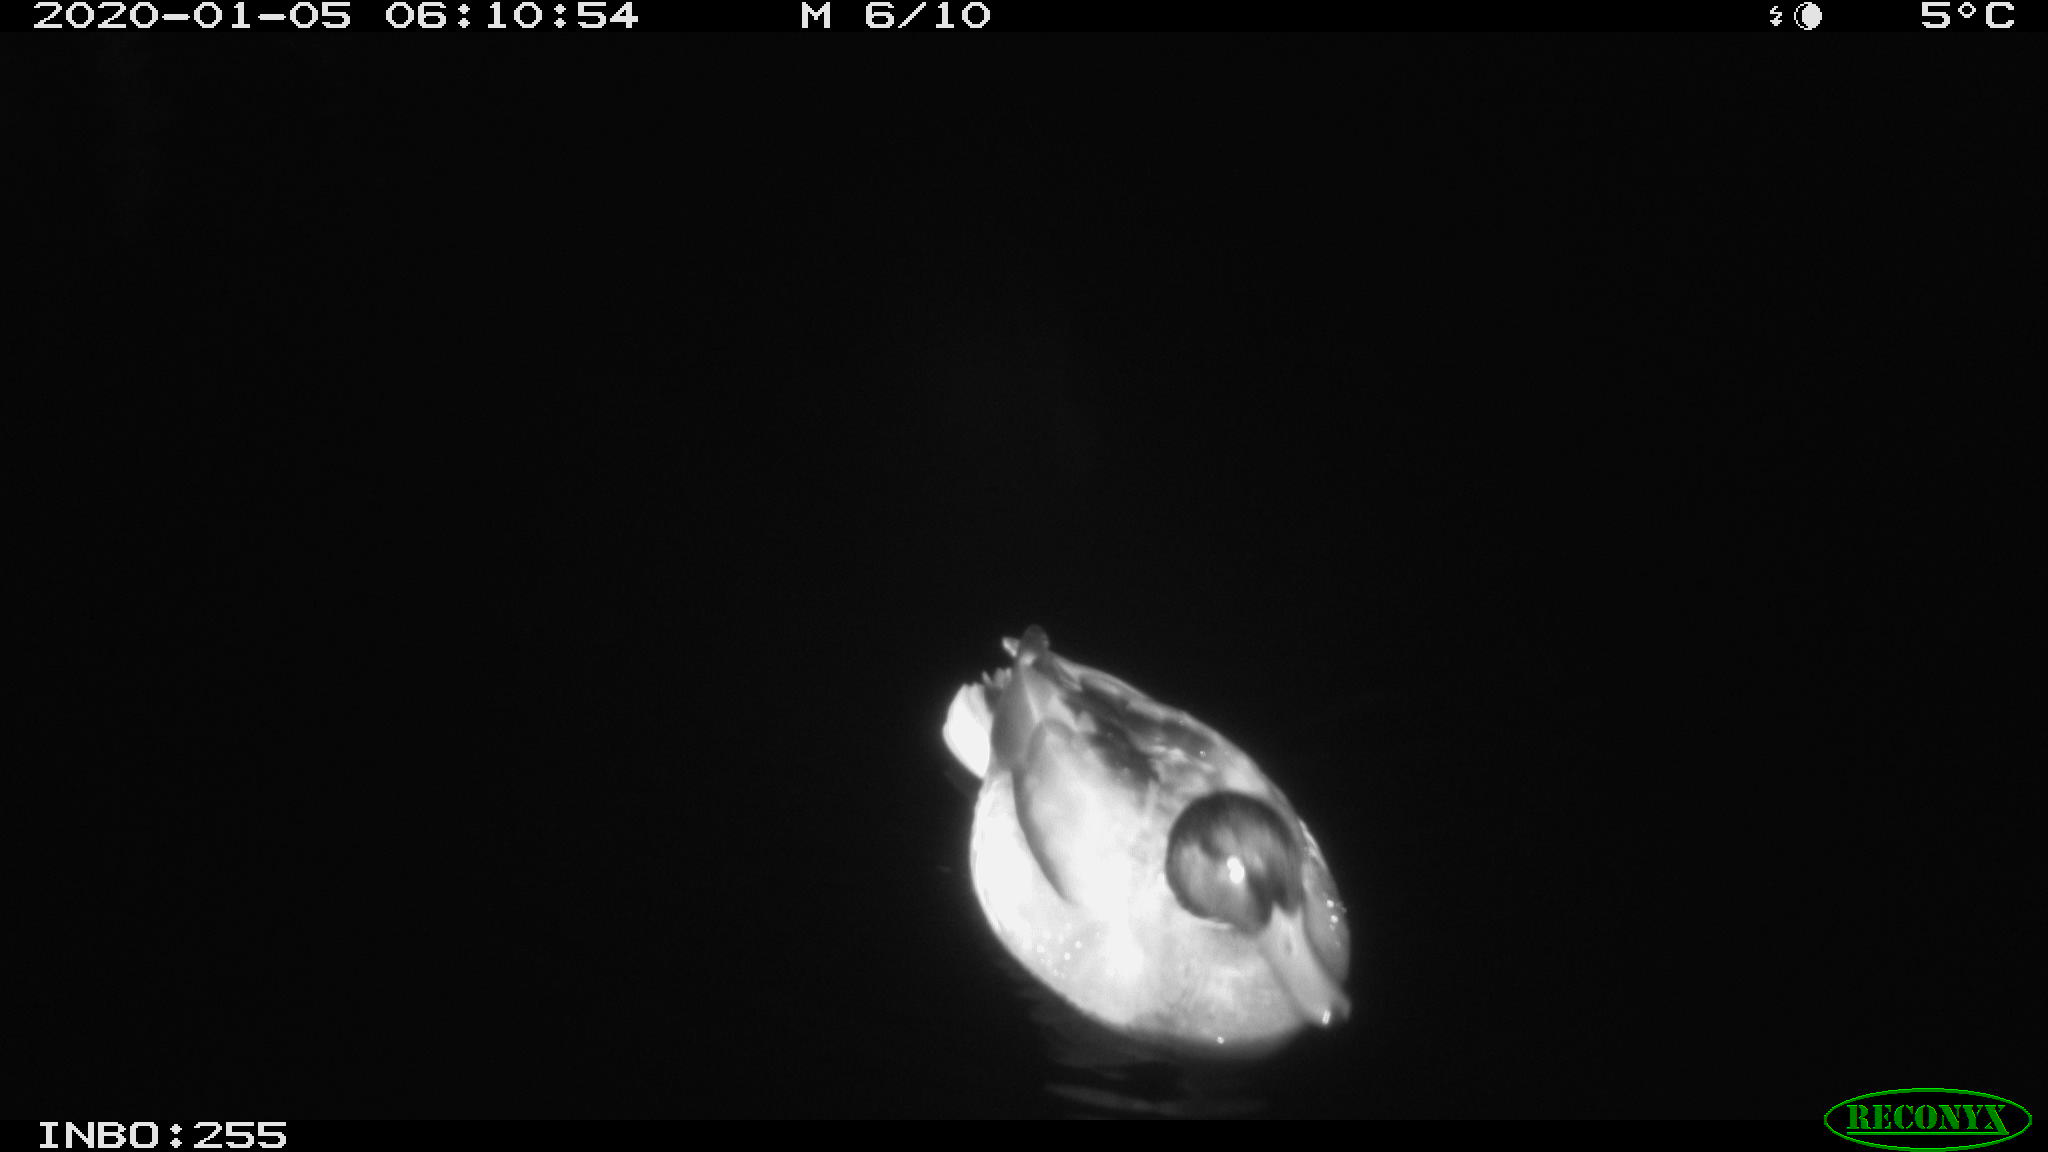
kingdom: Animalia
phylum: Chordata
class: Aves
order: Anseriformes
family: Anatidae
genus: Anas
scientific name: Anas platyrhynchos
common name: Mallard
